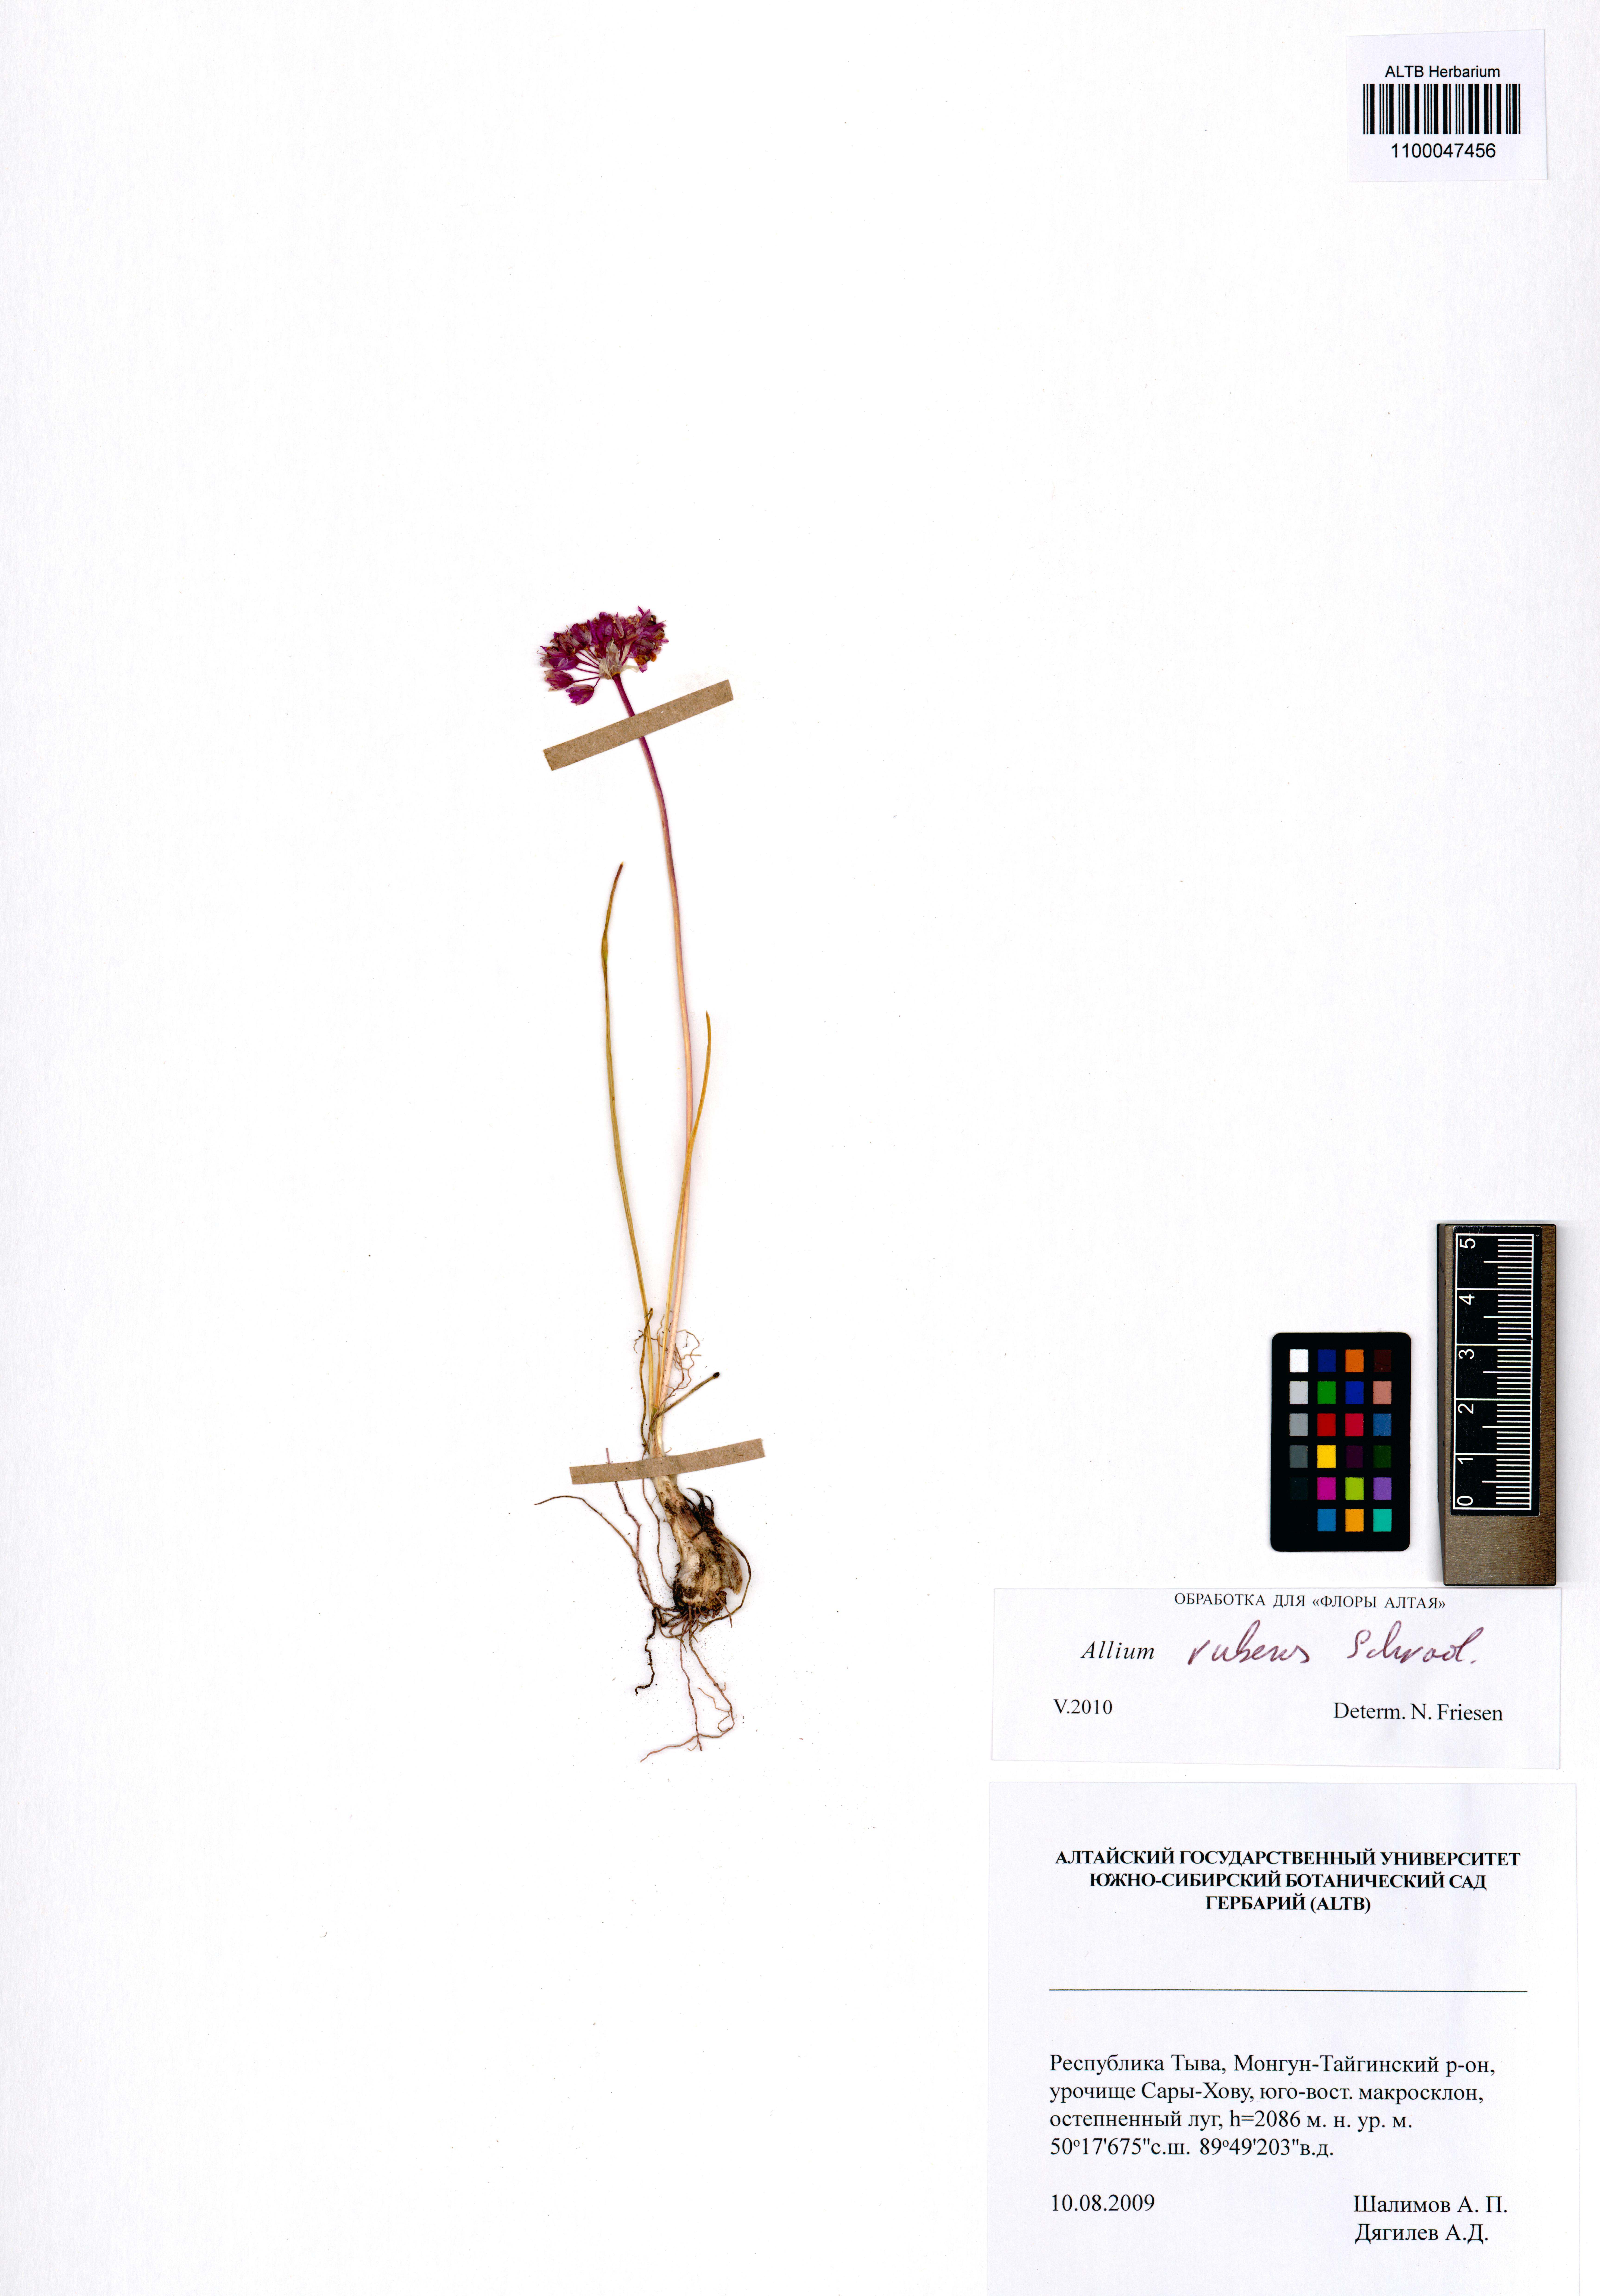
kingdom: Plantae
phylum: Tracheophyta
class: Liliopsida
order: Asparagales
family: Amaryllidaceae
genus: Allium
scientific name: Allium rubens
